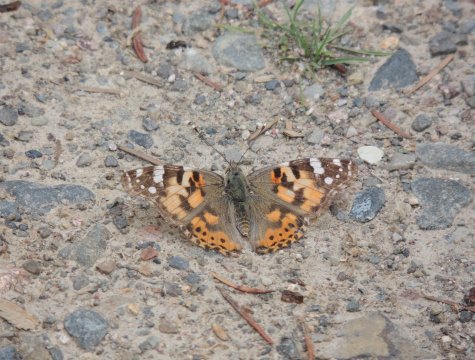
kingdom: Animalia
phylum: Arthropoda
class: Insecta
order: Lepidoptera
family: Nymphalidae
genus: Vanessa
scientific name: Vanessa cardui
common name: Painted Lady
